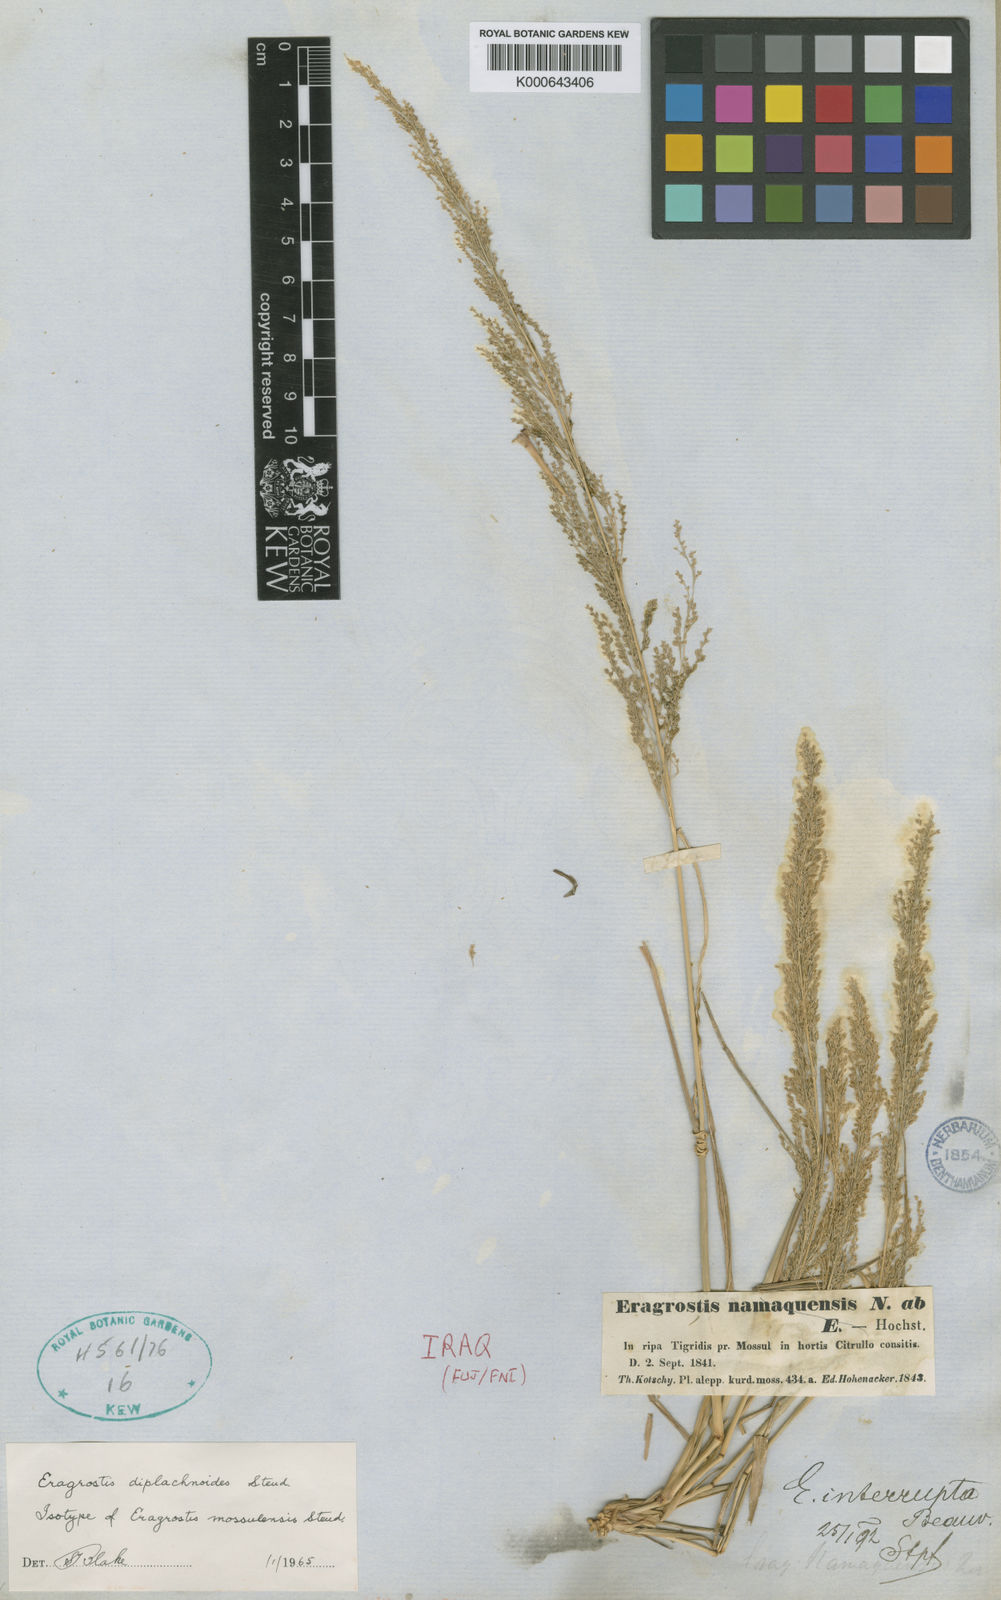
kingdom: Plantae
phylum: Tracheophyta
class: Liliopsida
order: Poales
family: Poaceae
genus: Eragrostis
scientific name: Eragrostis japonica
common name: Pond lovegrass
